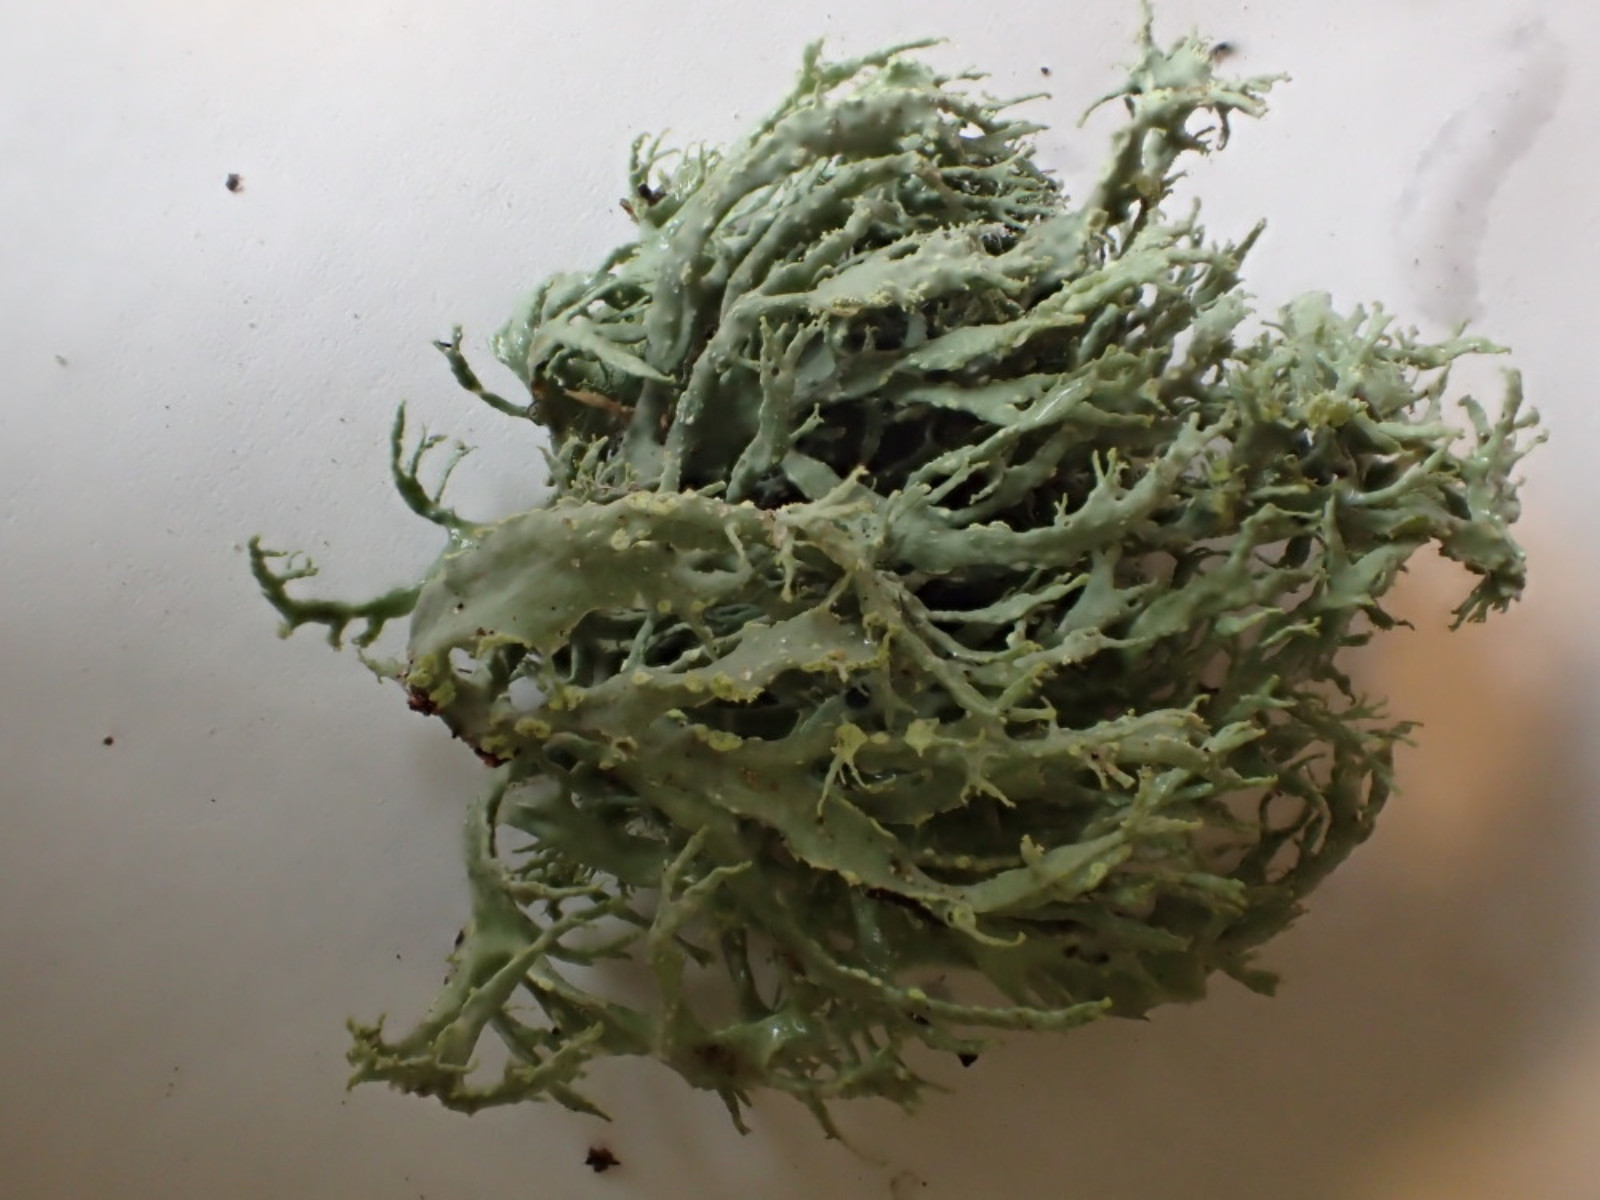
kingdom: Fungi
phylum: Ascomycota
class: Lecanoromycetes
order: Lecanorales
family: Ramalinaceae
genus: Ramalina
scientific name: Ramalina farinacea
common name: melet grenlav
